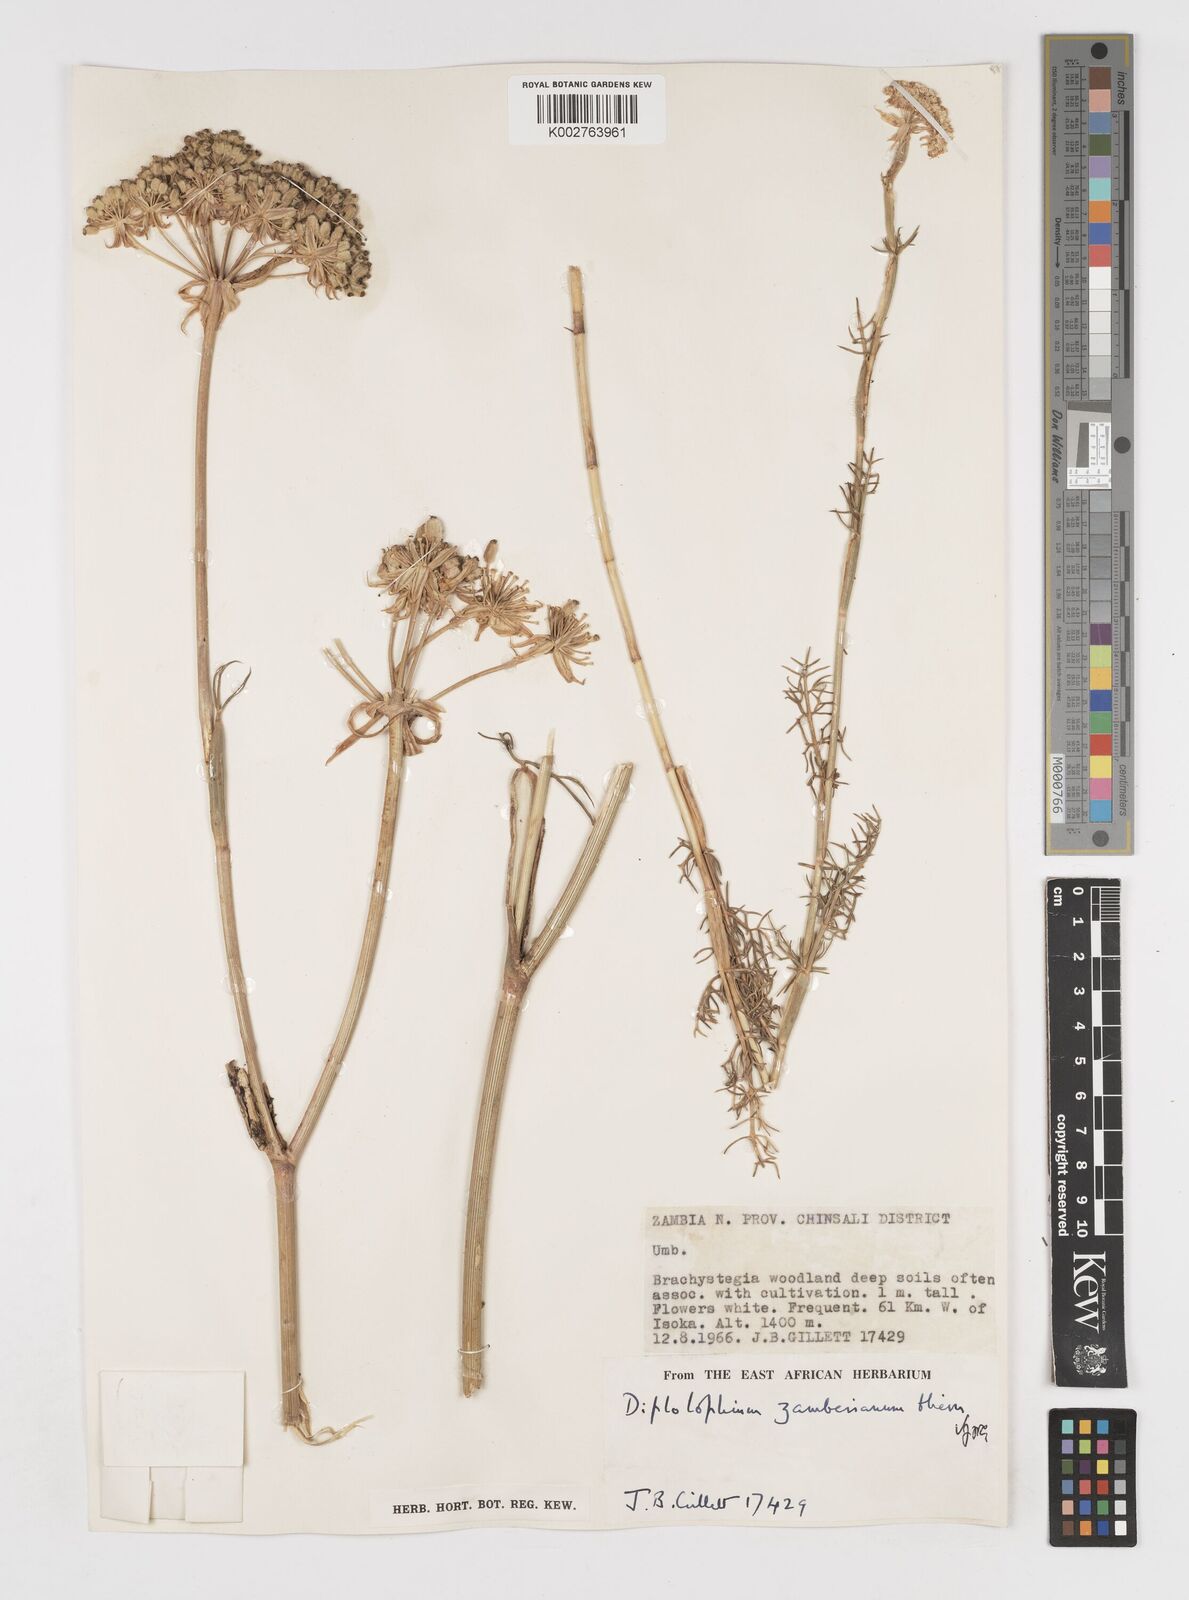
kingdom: Plantae
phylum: Tracheophyta
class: Magnoliopsida
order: Apiales
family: Apiaceae
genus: Diplolophium
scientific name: Diplolophium zambesianum
